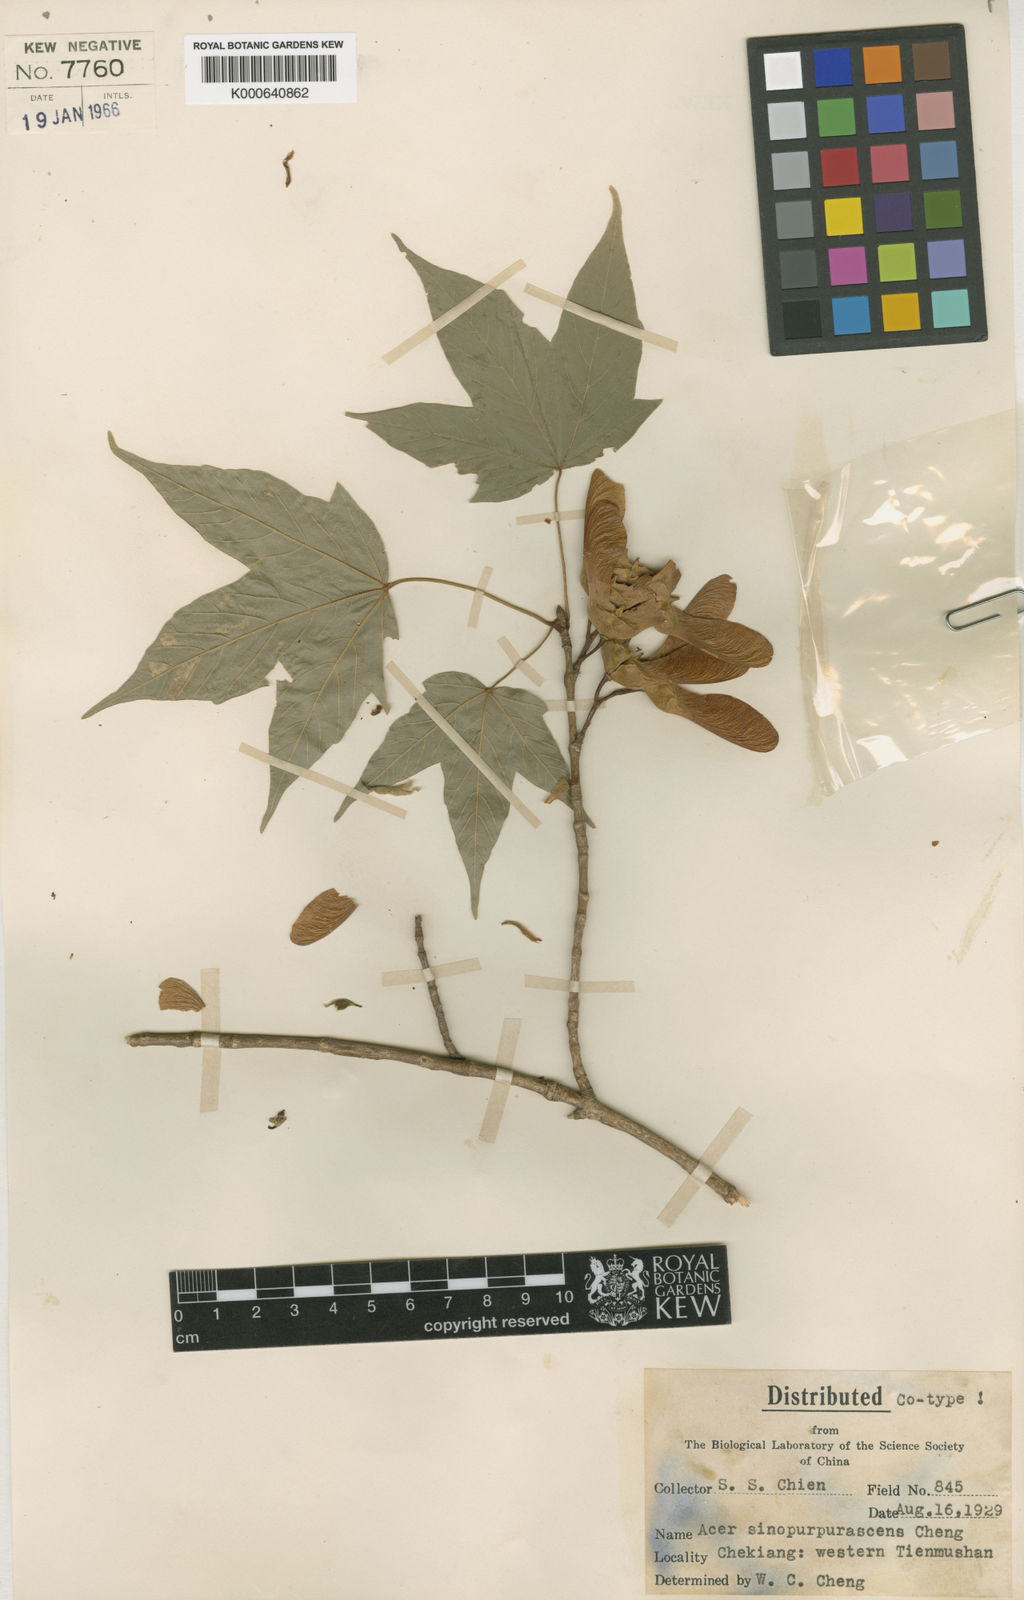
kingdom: Plantae
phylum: Tracheophyta
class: Magnoliopsida
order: Sapindales
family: Sapindaceae
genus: Acer
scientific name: Acer sinopurpurascens
